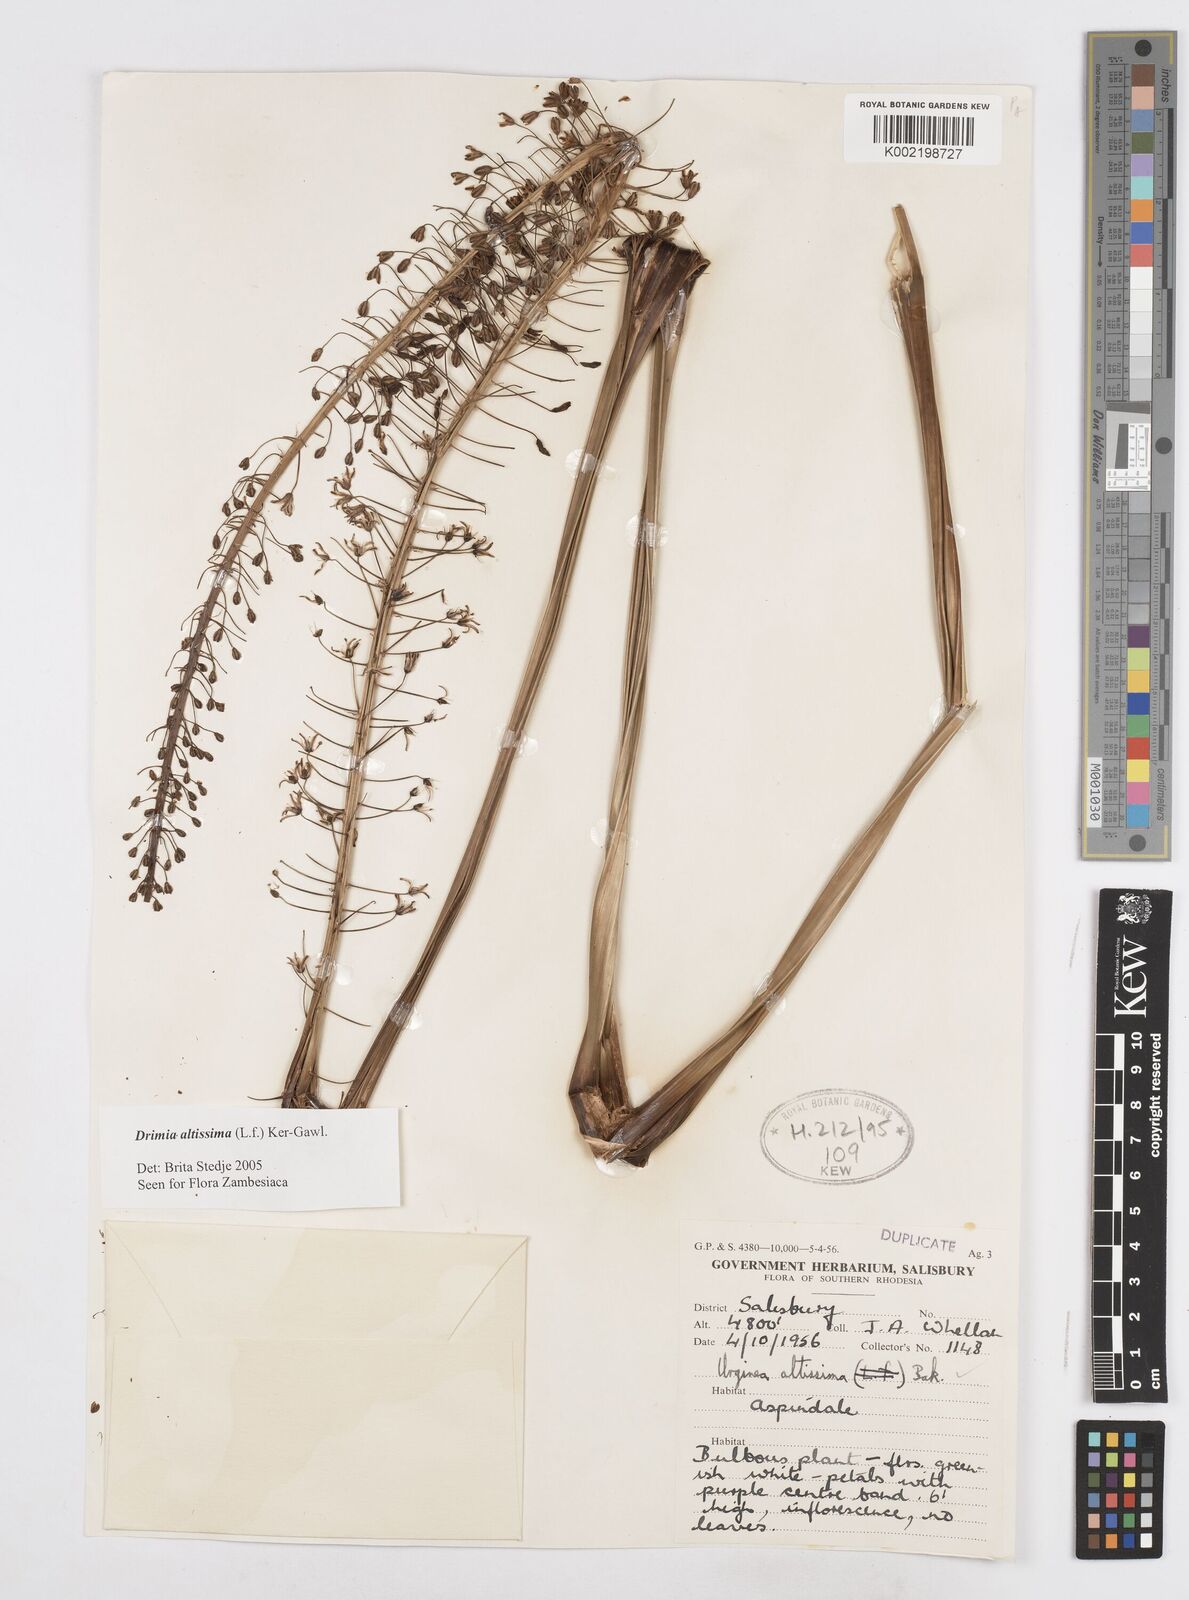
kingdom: Plantae
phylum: Tracheophyta
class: Liliopsida
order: Asparagales
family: Asparagaceae
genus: Drimia
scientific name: Drimia
